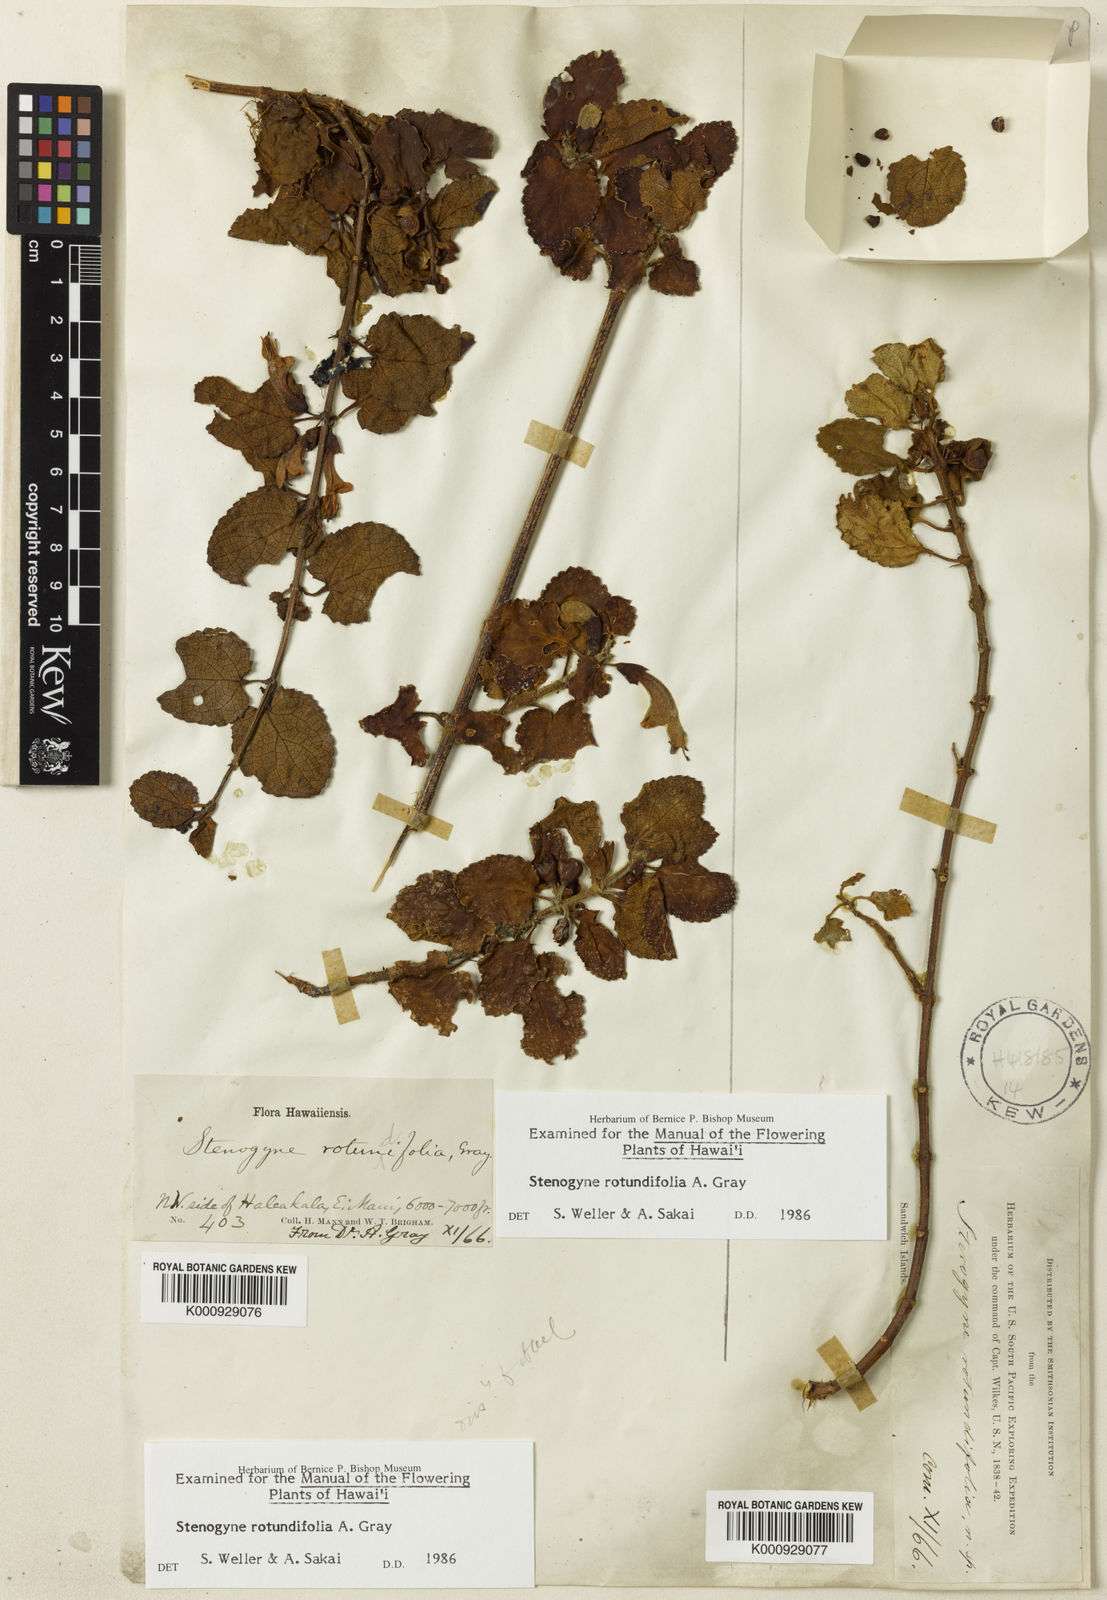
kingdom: Plantae
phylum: Tracheophyta
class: Magnoliopsida
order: Lamiales
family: Lamiaceae
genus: Stenogyne
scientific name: Stenogyne rotundifolia
